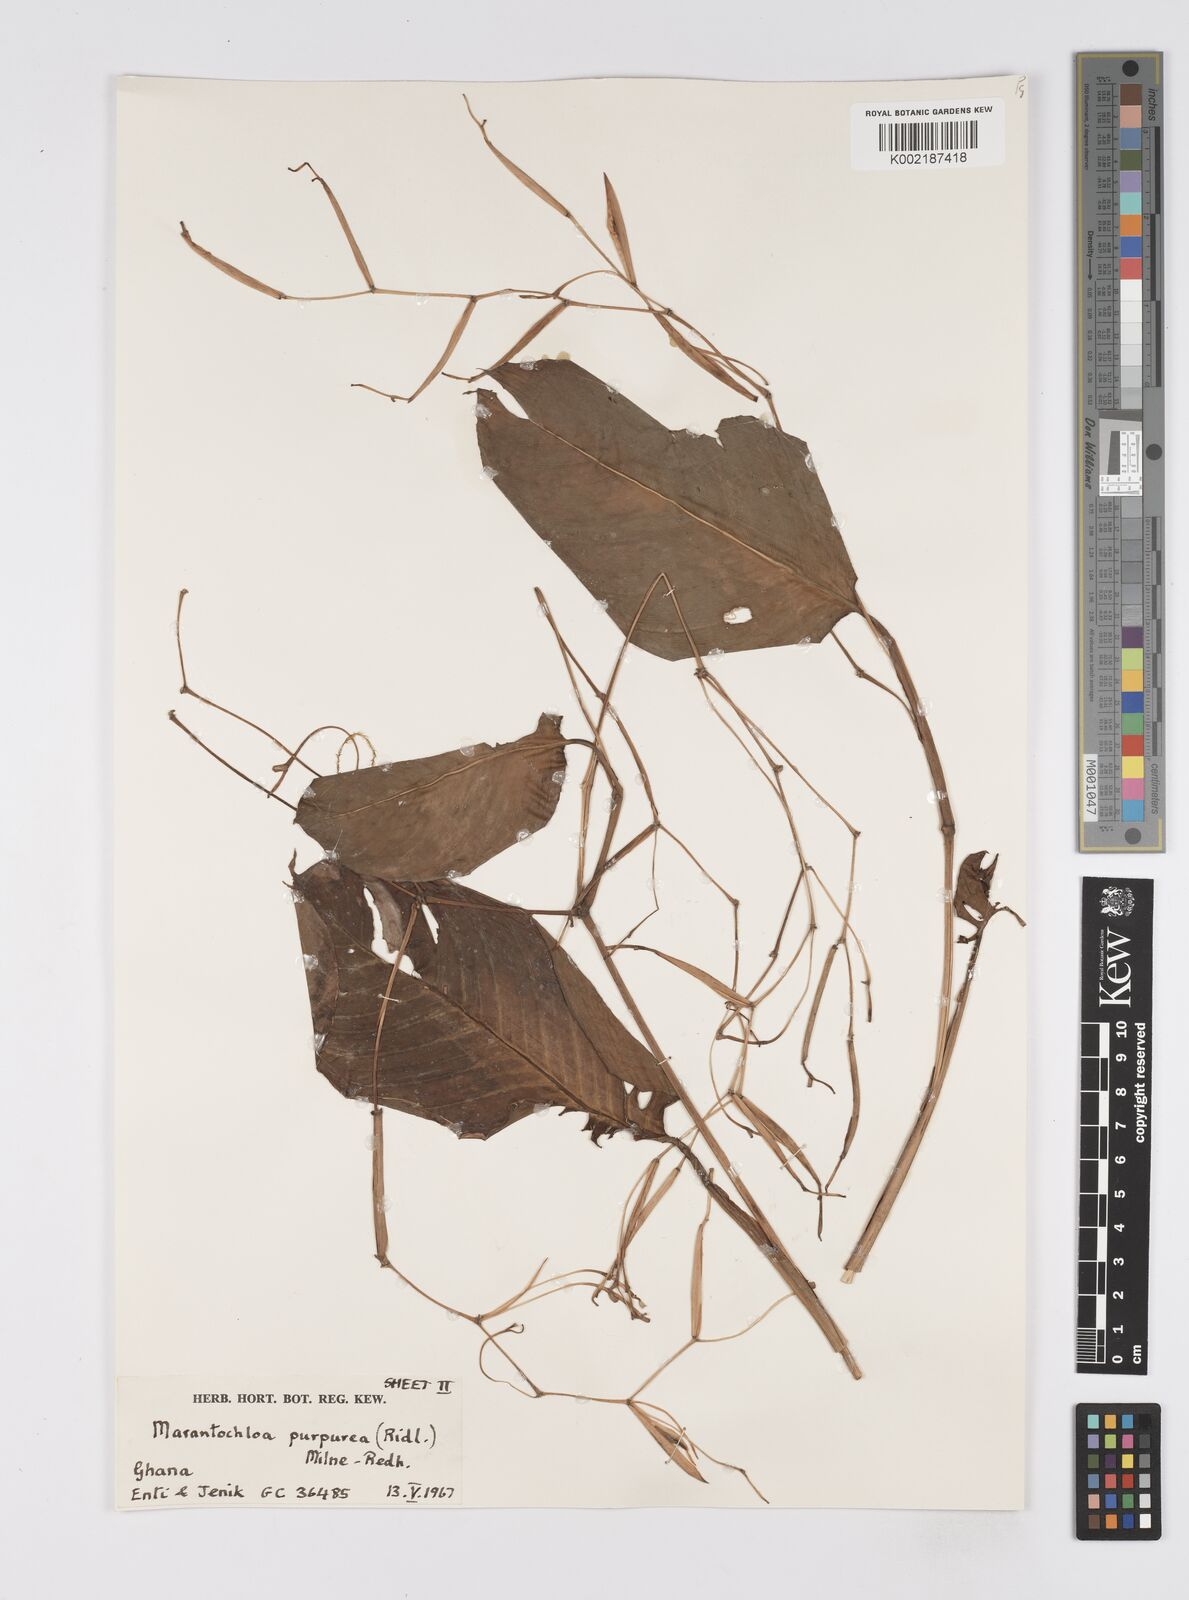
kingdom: Plantae
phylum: Tracheophyta
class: Liliopsida
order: Zingiberales
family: Marantaceae
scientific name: Marantaceae
